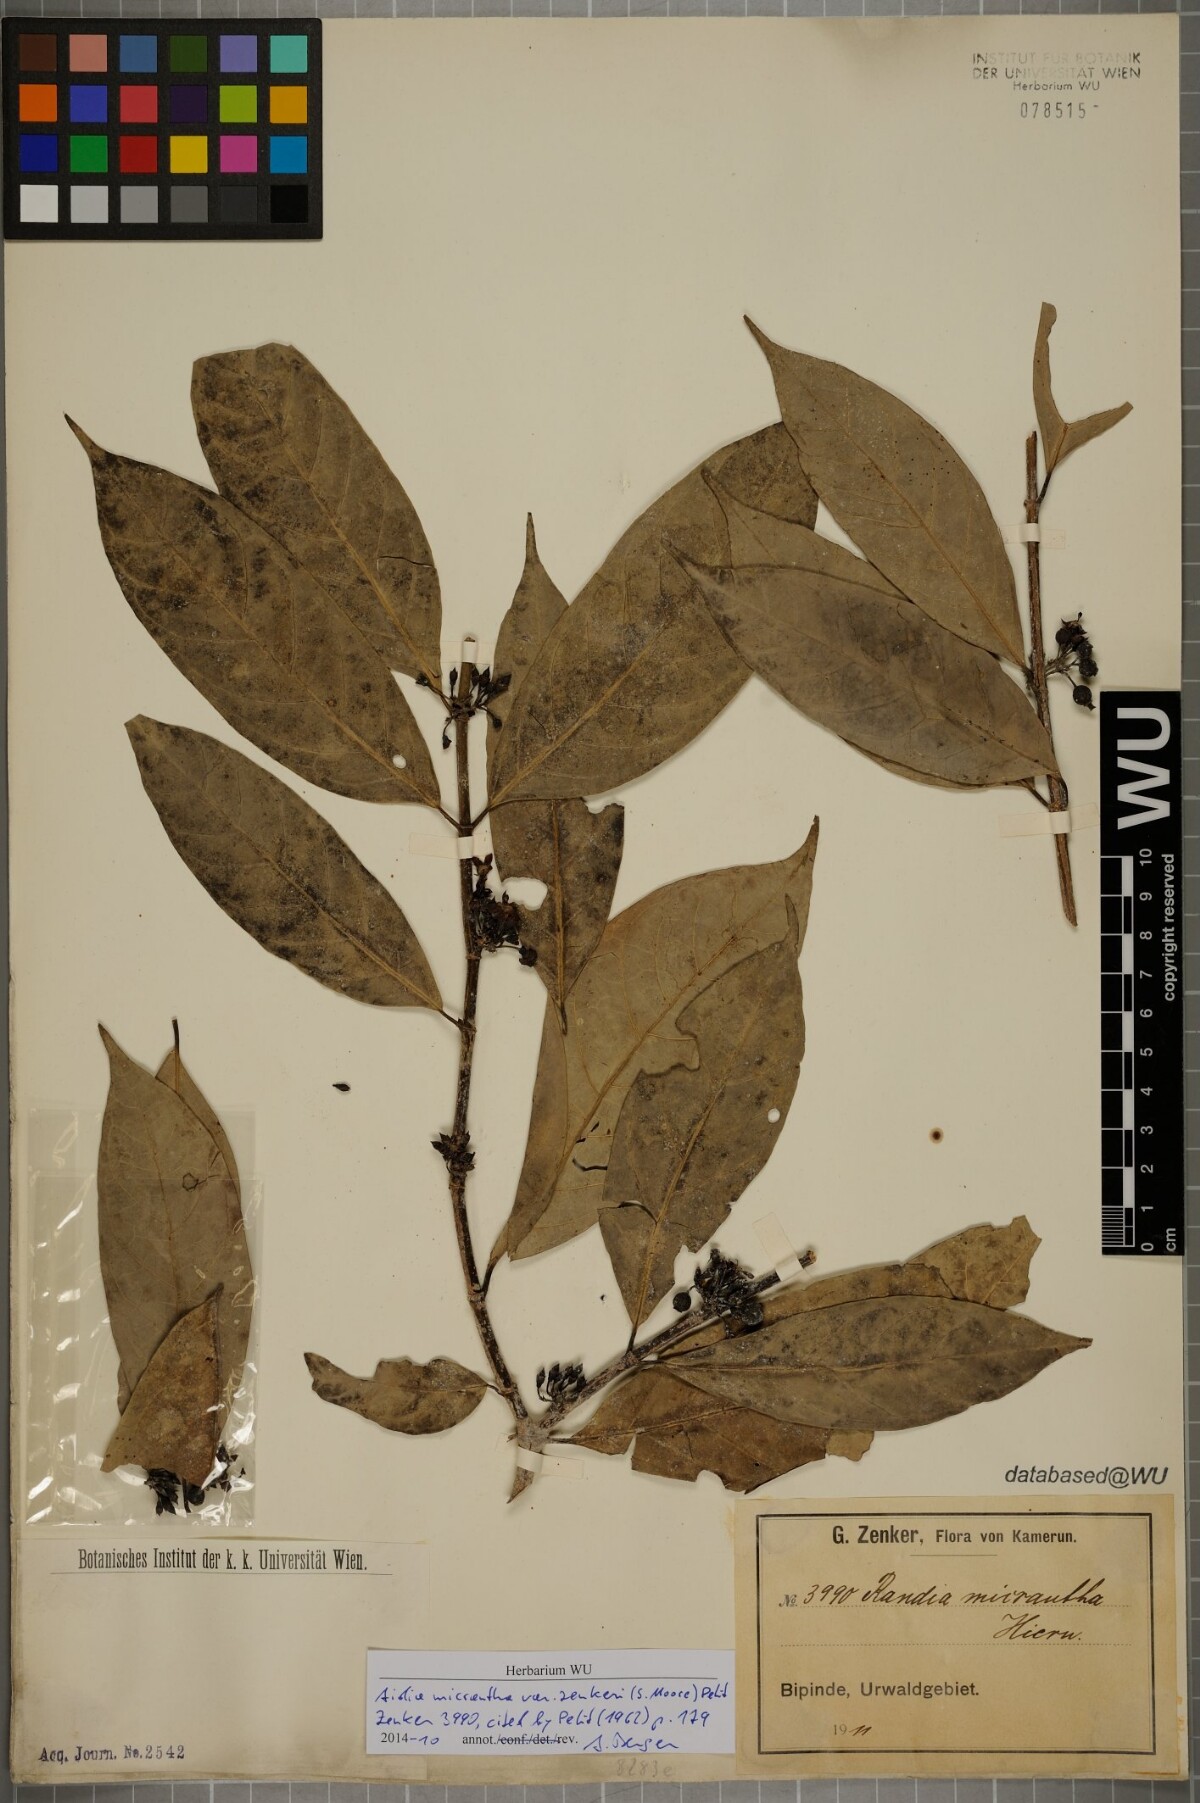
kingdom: Plantae
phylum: Tracheophyta
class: Magnoliopsida
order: Gentianales
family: Rubiaceae
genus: Aidia
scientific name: Aidia micrantha
